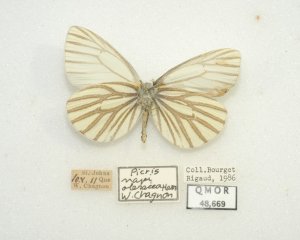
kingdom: Animalia
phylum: Arthropoda
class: Insecta
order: Lepidoptera
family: Pieridae
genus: Pieris
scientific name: Pieris oleracea
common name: Mustard White
